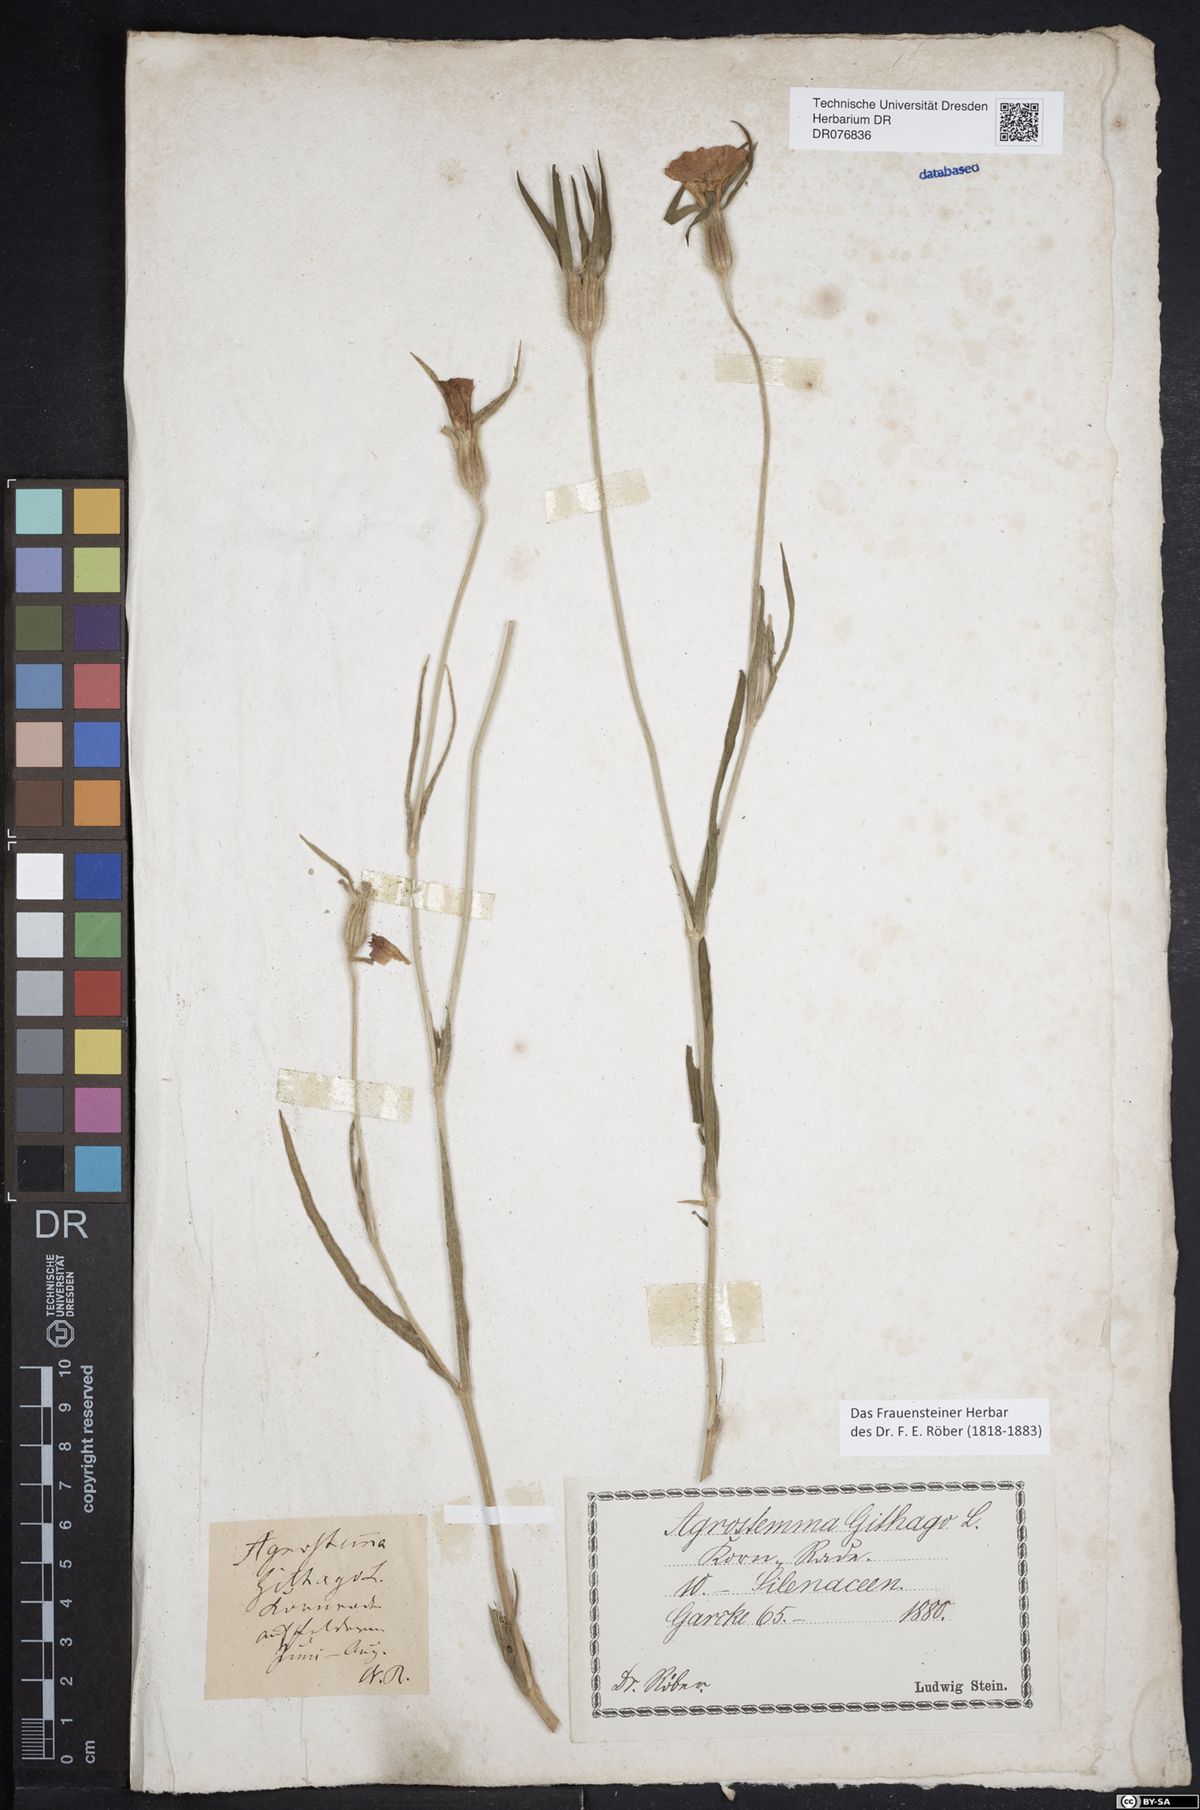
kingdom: Plantae
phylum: Tracheophyta
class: Magnoliopsida
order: Caryophyllales
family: Caryophyllaceae
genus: Agrostemma
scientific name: Agrostemma githago
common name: Common corncockle
